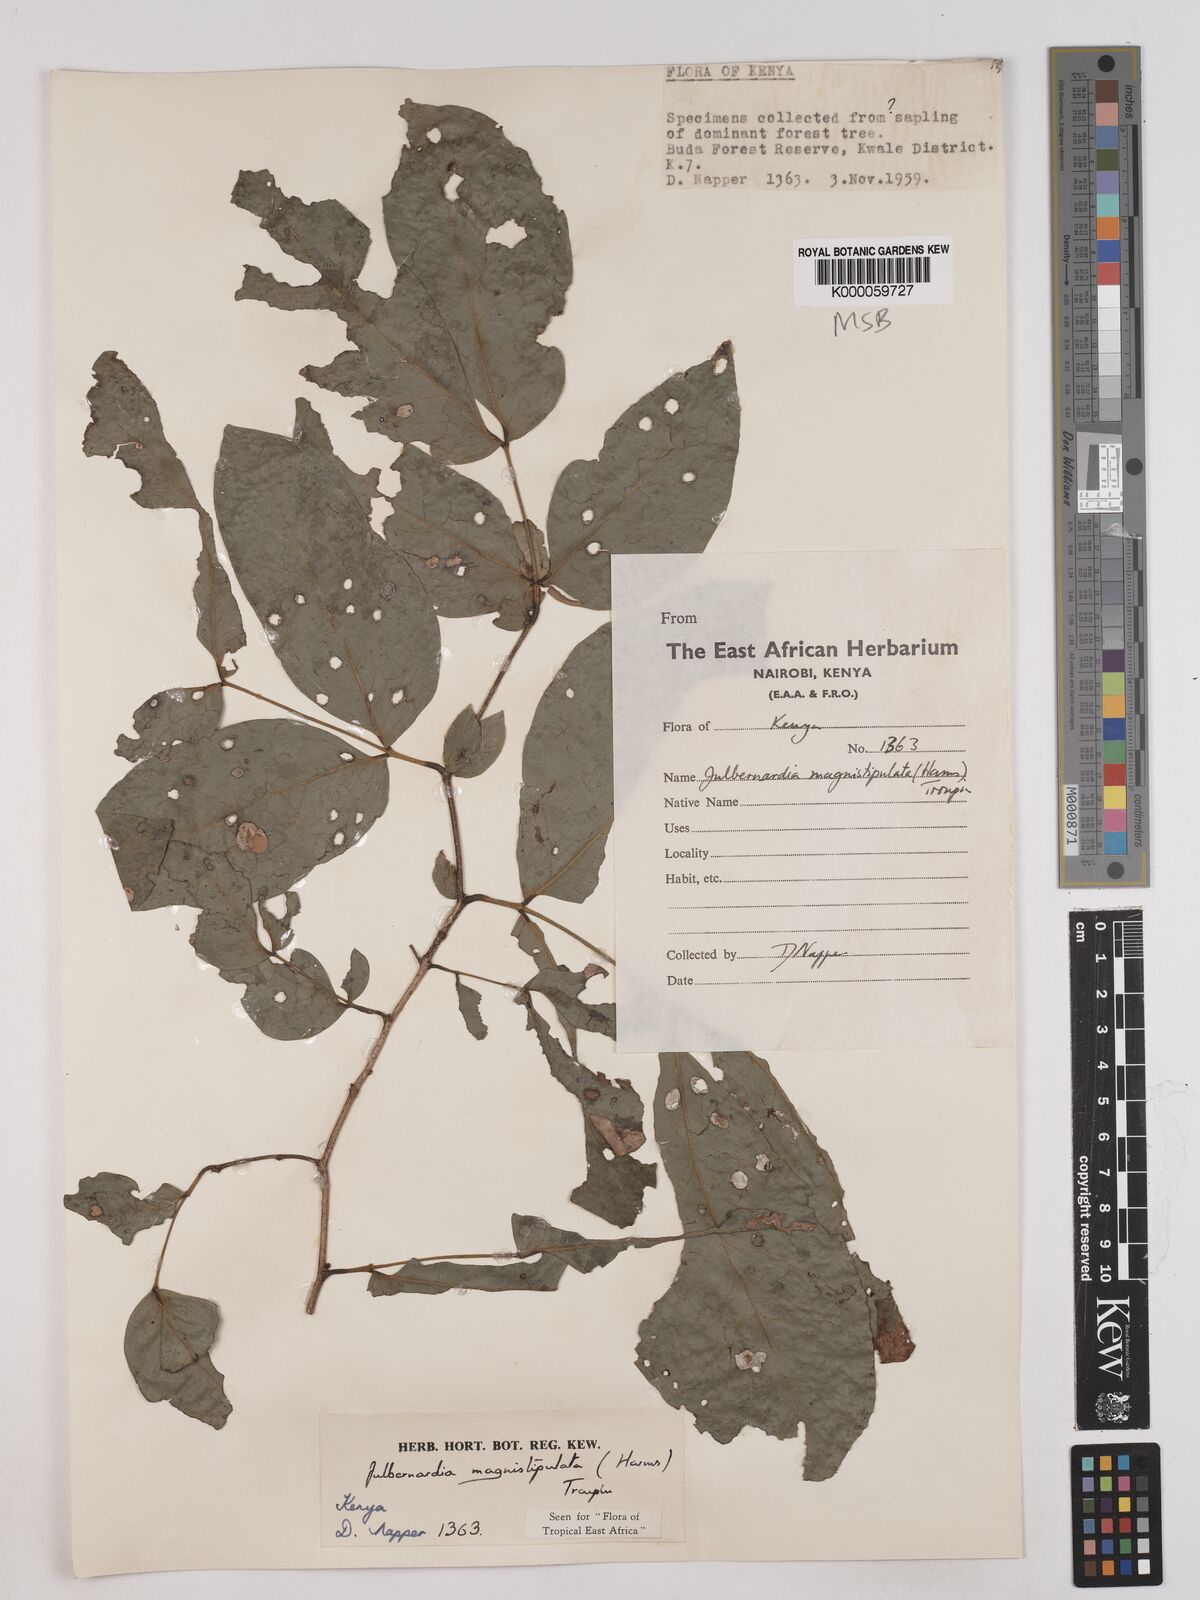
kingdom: Plantae
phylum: Tracheophyta
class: Magnoliopsida
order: Fabales
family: Fabaceae
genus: Julbernardia
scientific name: Julbernardia magnistipulata
